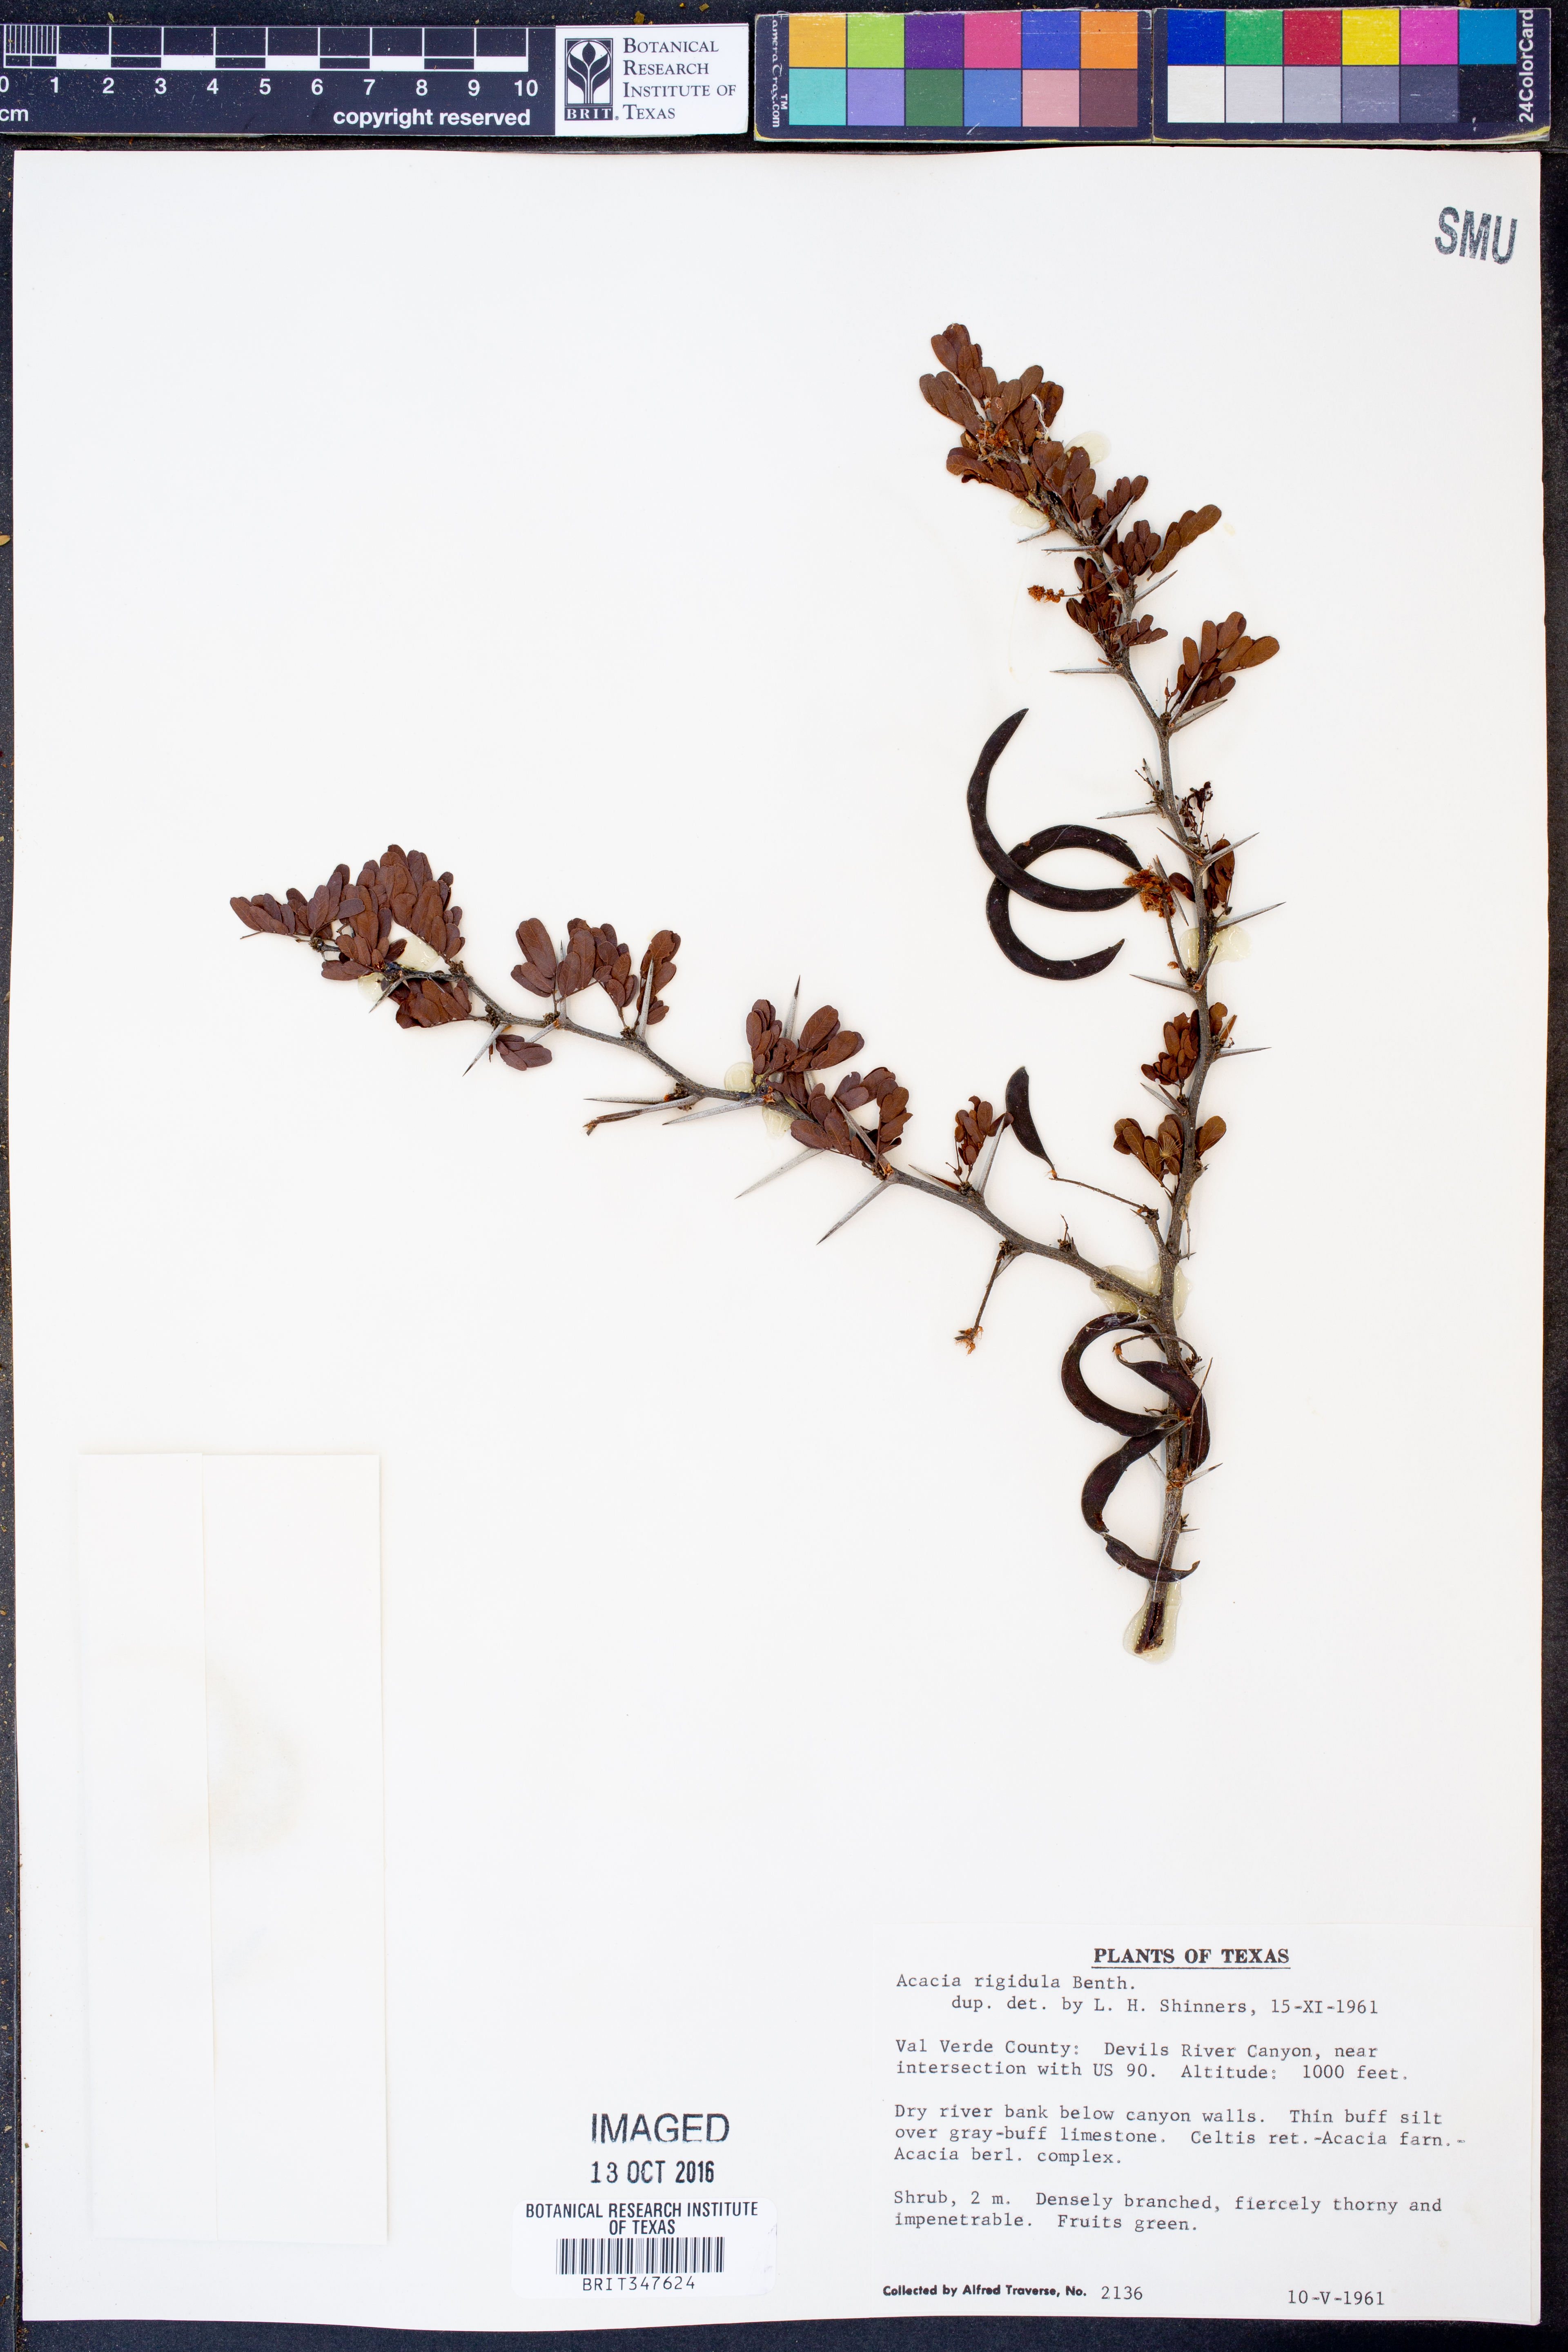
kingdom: Plantae
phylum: Tracheophyta
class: Magnoliopsida
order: Fabales
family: Fabaceae
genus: Vachellia
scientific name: Vachellia rigidula
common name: Blackbrush
